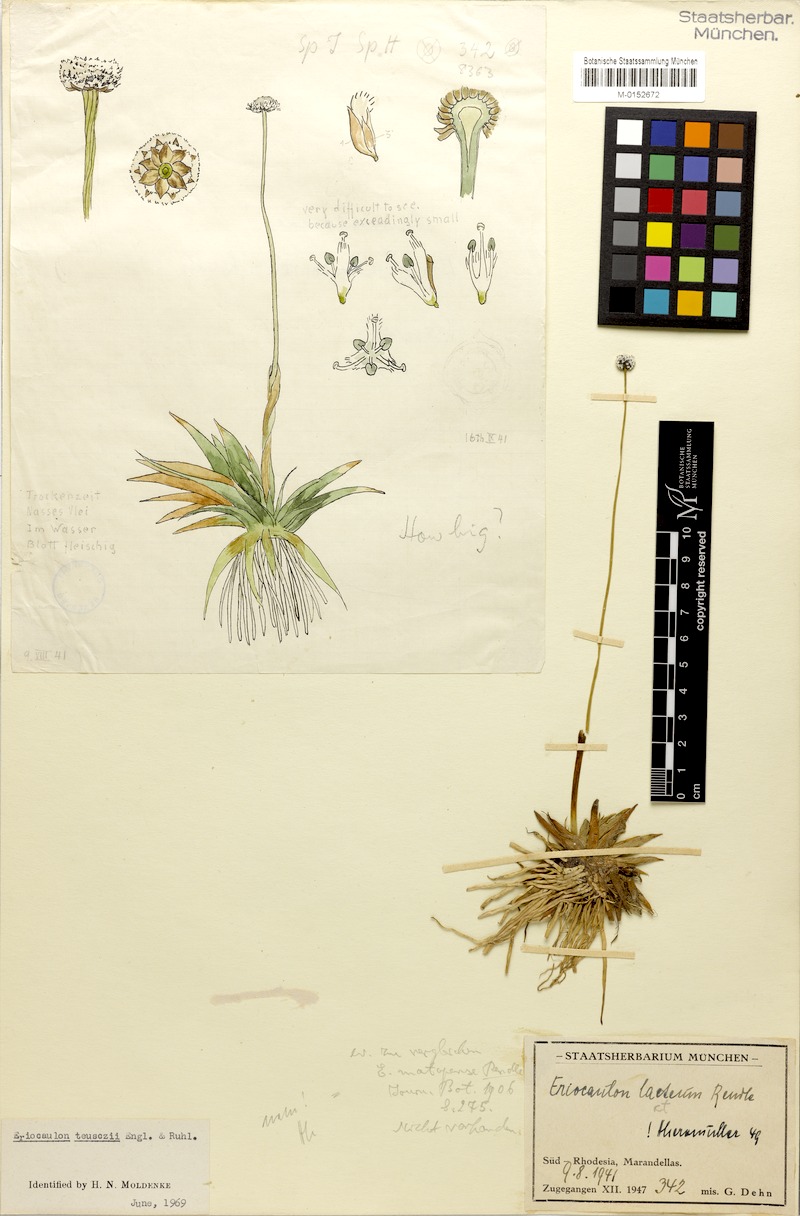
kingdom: Plantae
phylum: Tracheophyta
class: Liliopsida
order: Poales
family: Eriocaulaceae
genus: Eriocaulon
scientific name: Eriocaulon teusczii
